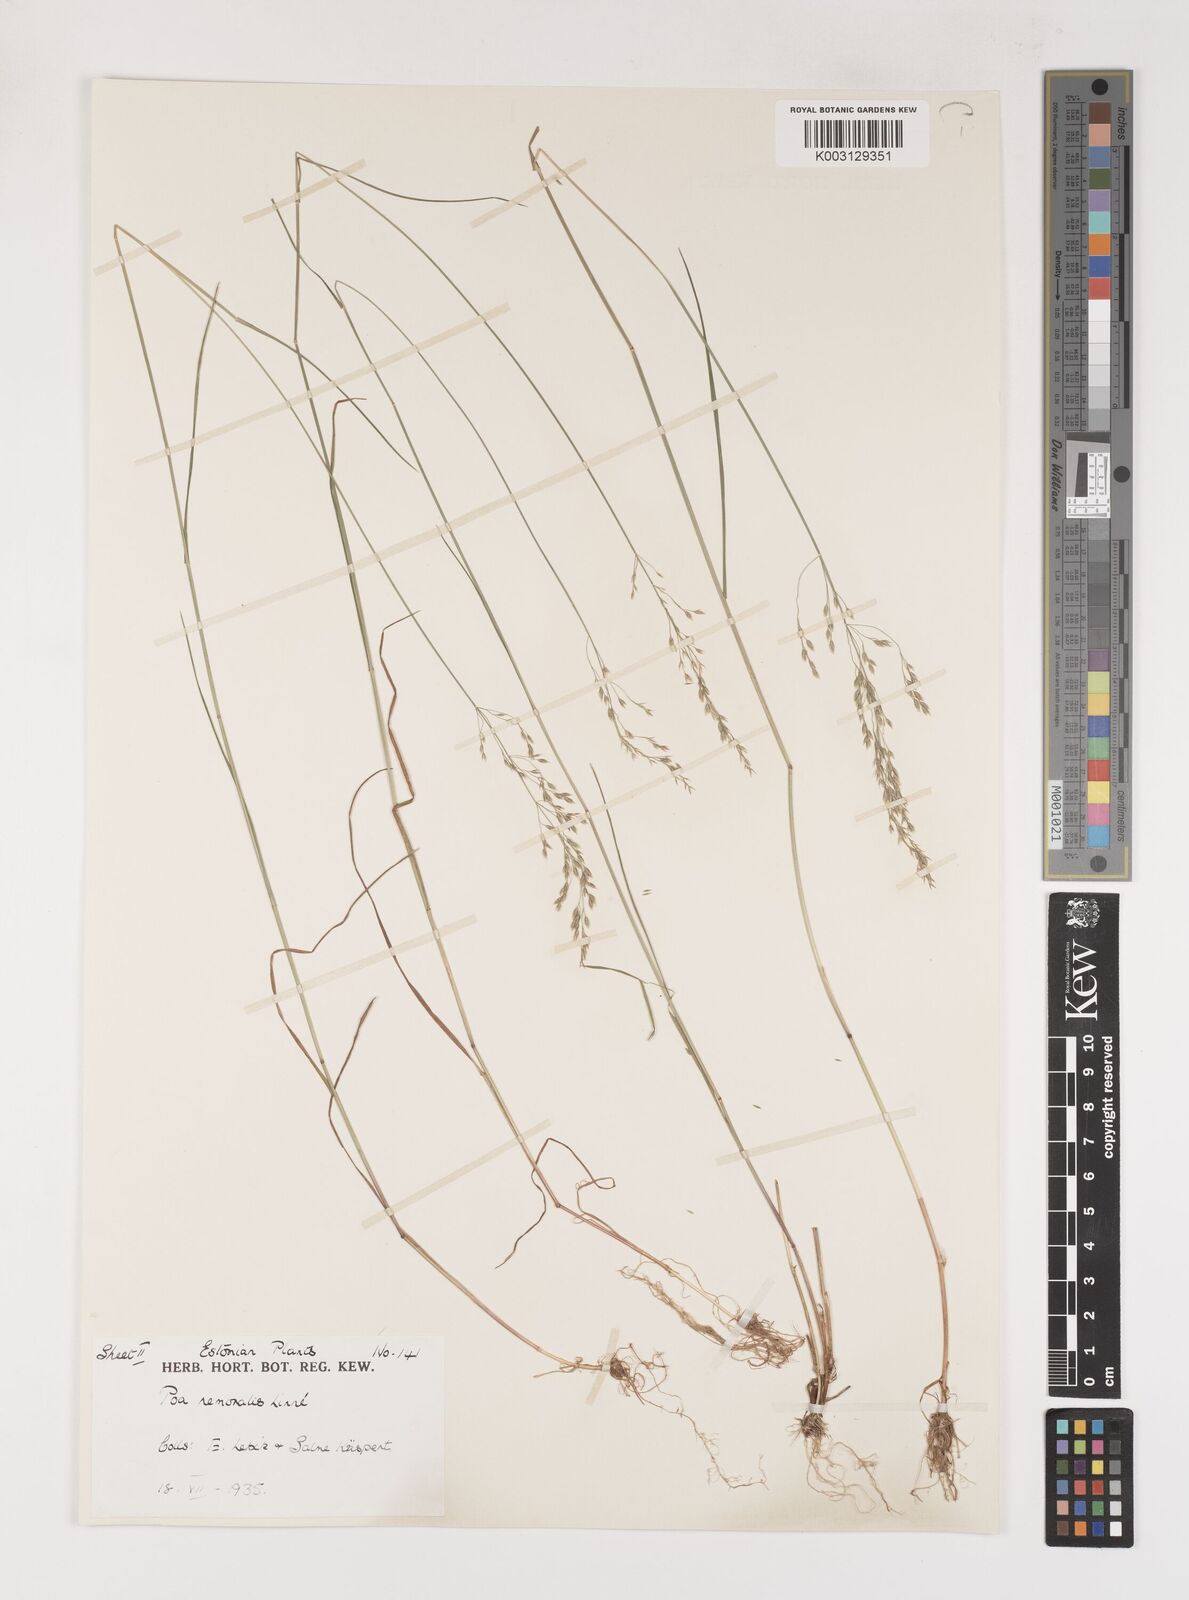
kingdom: Plantae
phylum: Tracheophyta
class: Liliopsida
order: Poales
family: Poaceae
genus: Poa
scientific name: Poa nemoralis
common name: Wood bluegrass
